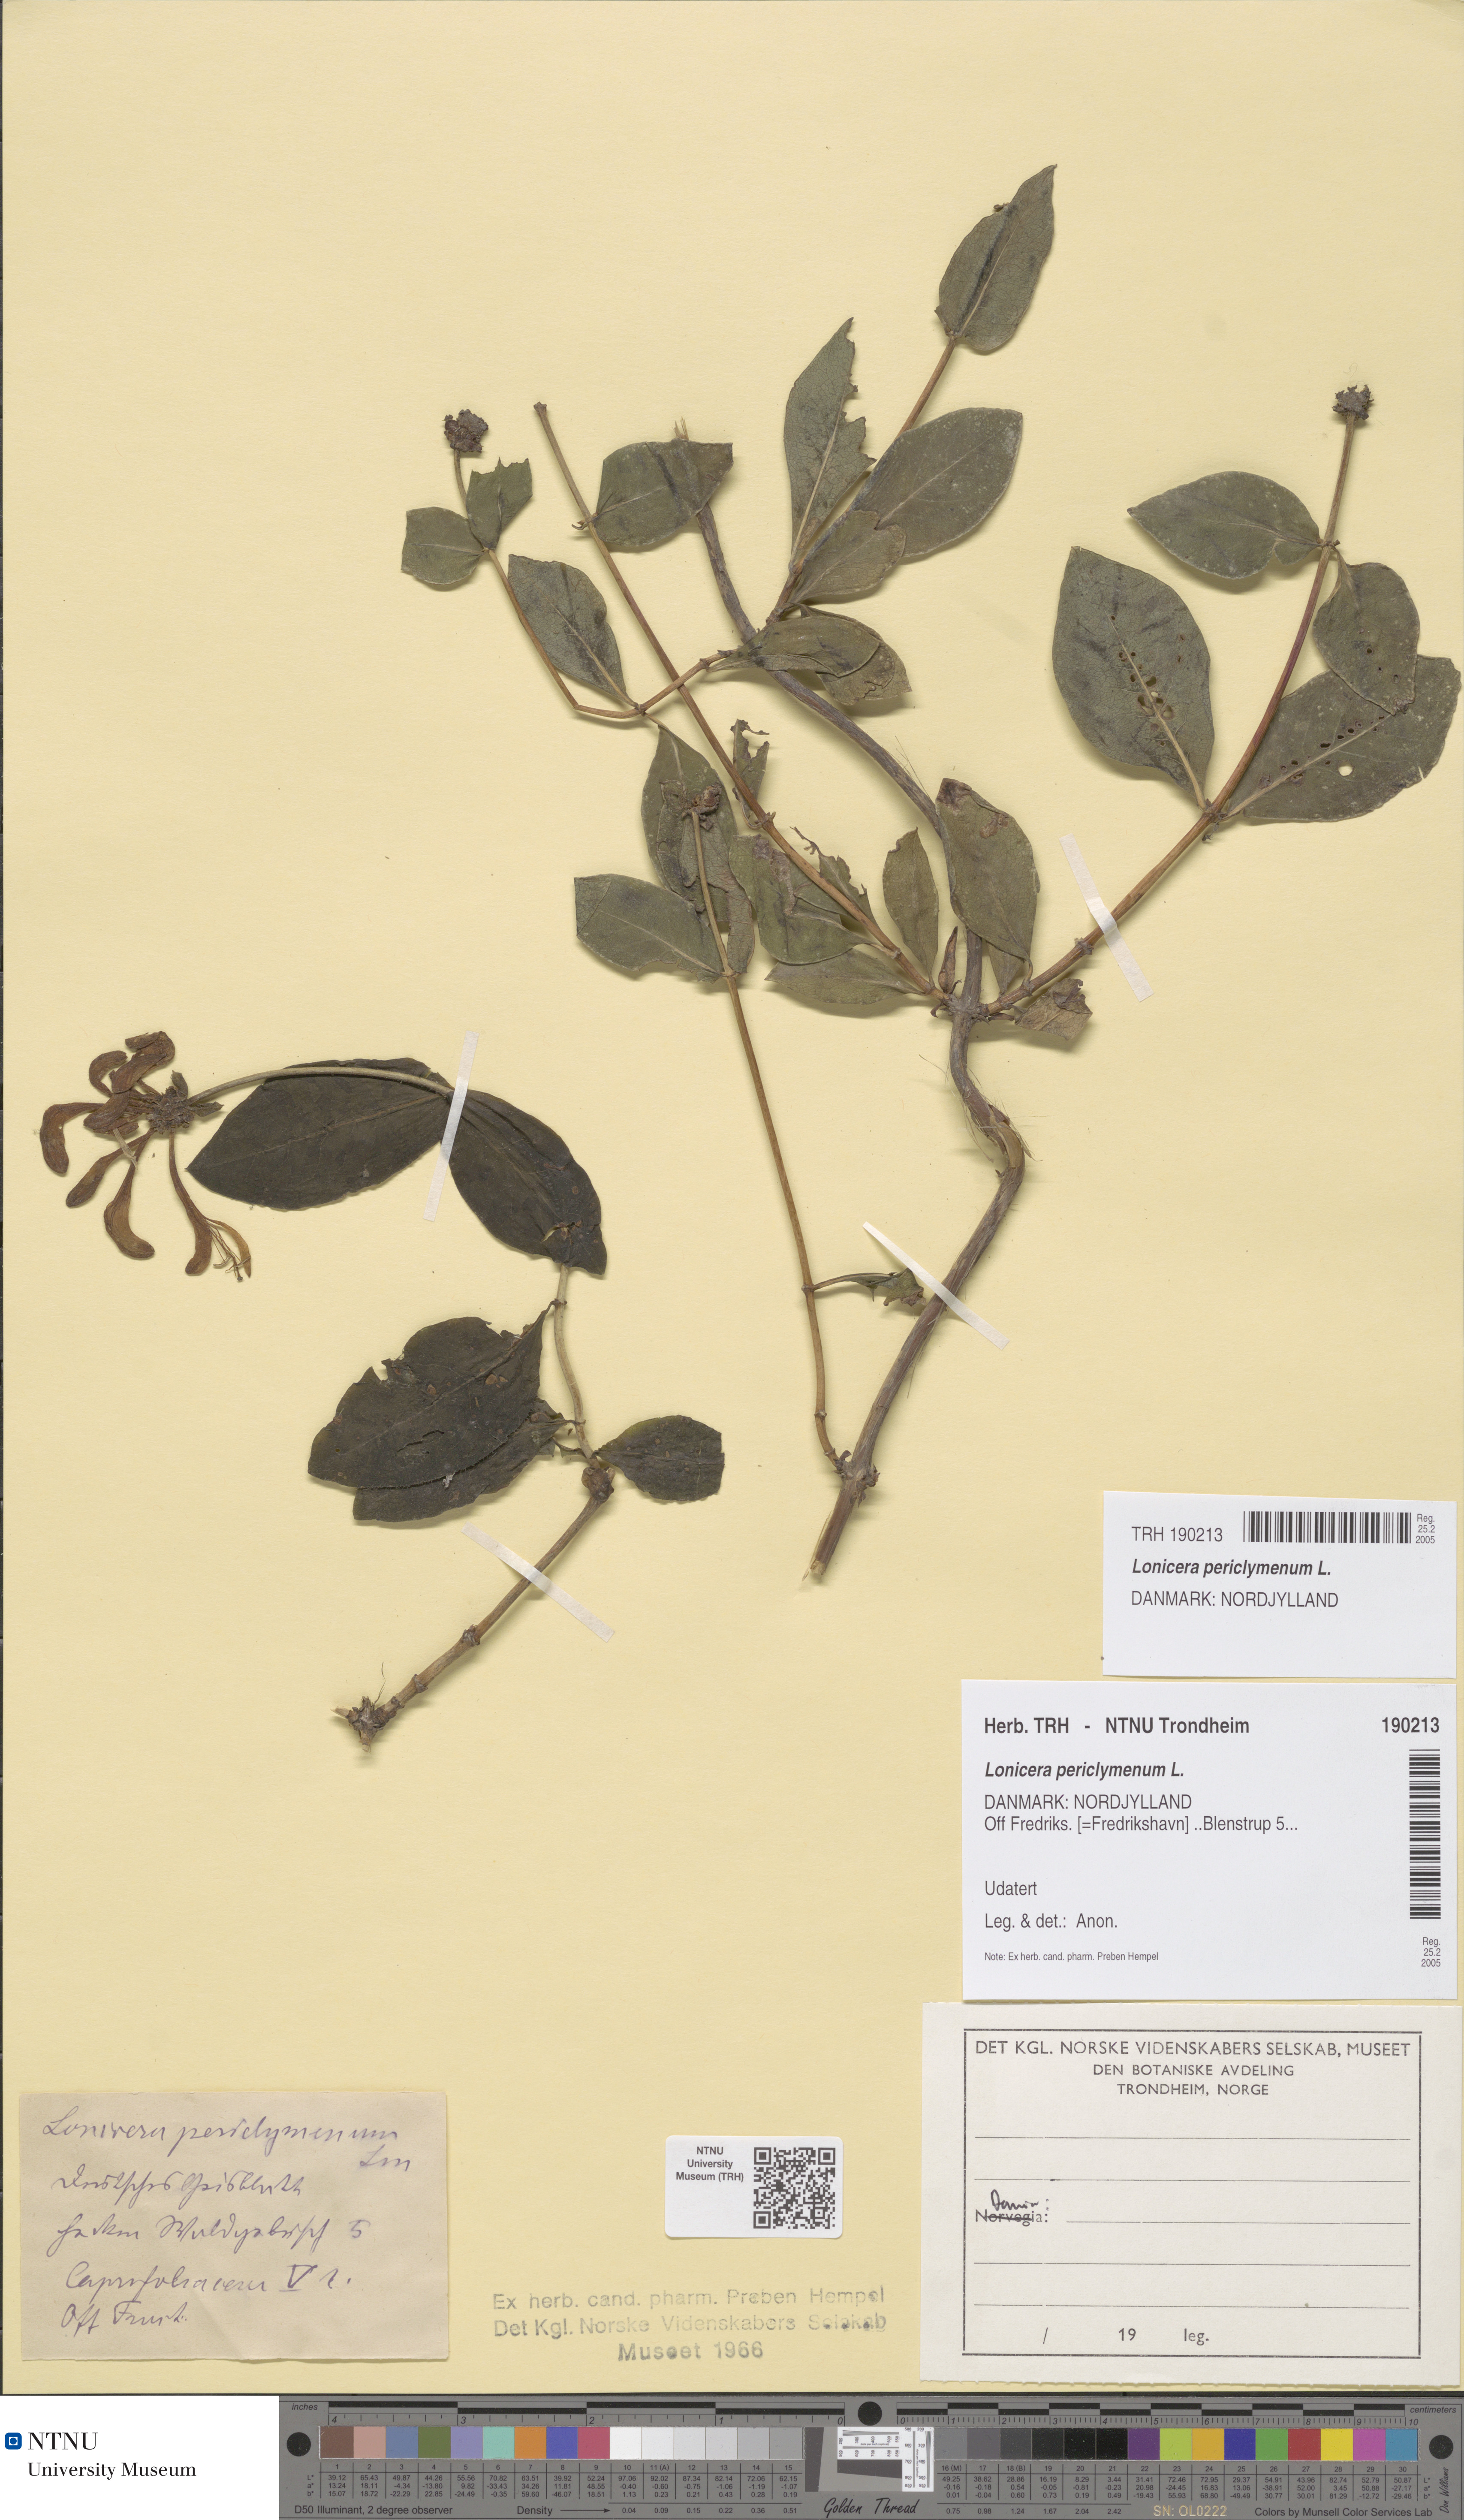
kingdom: Plantae
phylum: Tracheophyta
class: Magnoliopsida
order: Dipsacales
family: Caprifoliaceae
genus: Lonicera
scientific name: Lonicera periclymenum
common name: European honeysuckle
